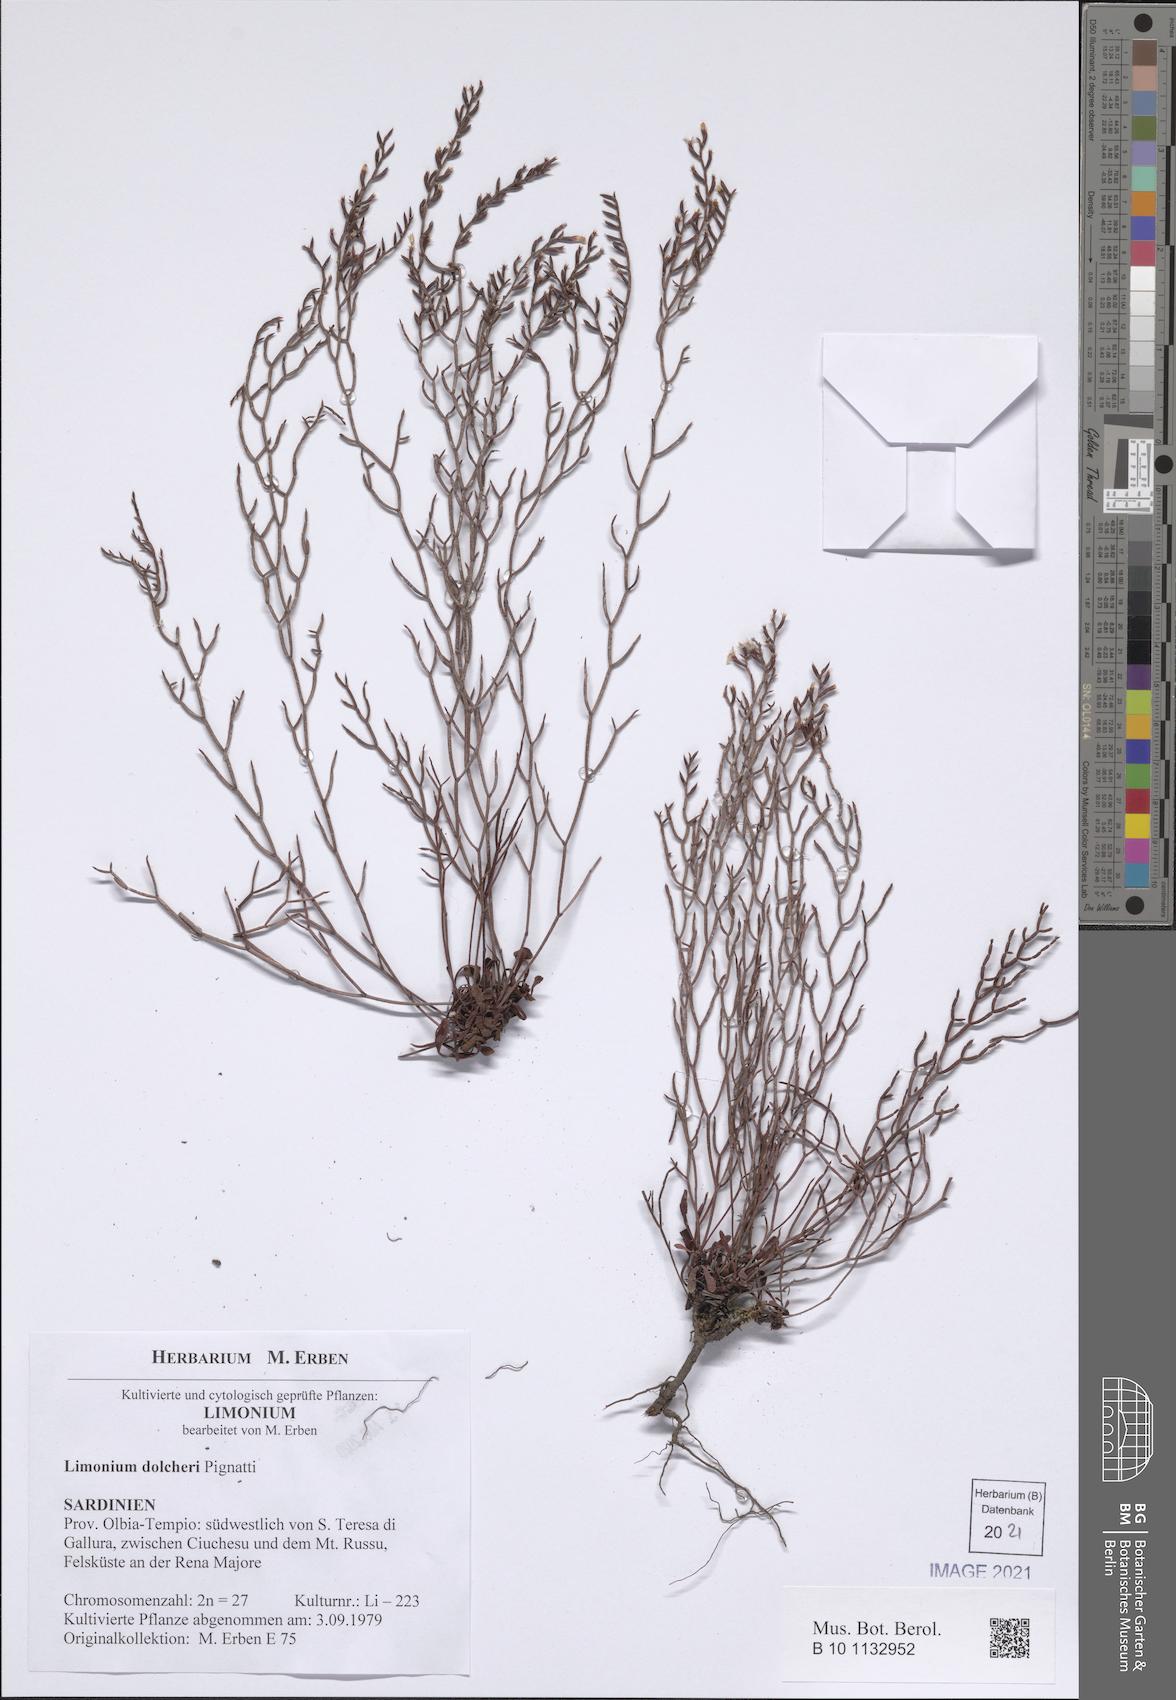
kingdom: Plantae
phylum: Tracheophyta
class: Magnoliopsida
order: Caryophyllales
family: Plumbaginaceae
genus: Limonium
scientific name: Limonium dolcheri
